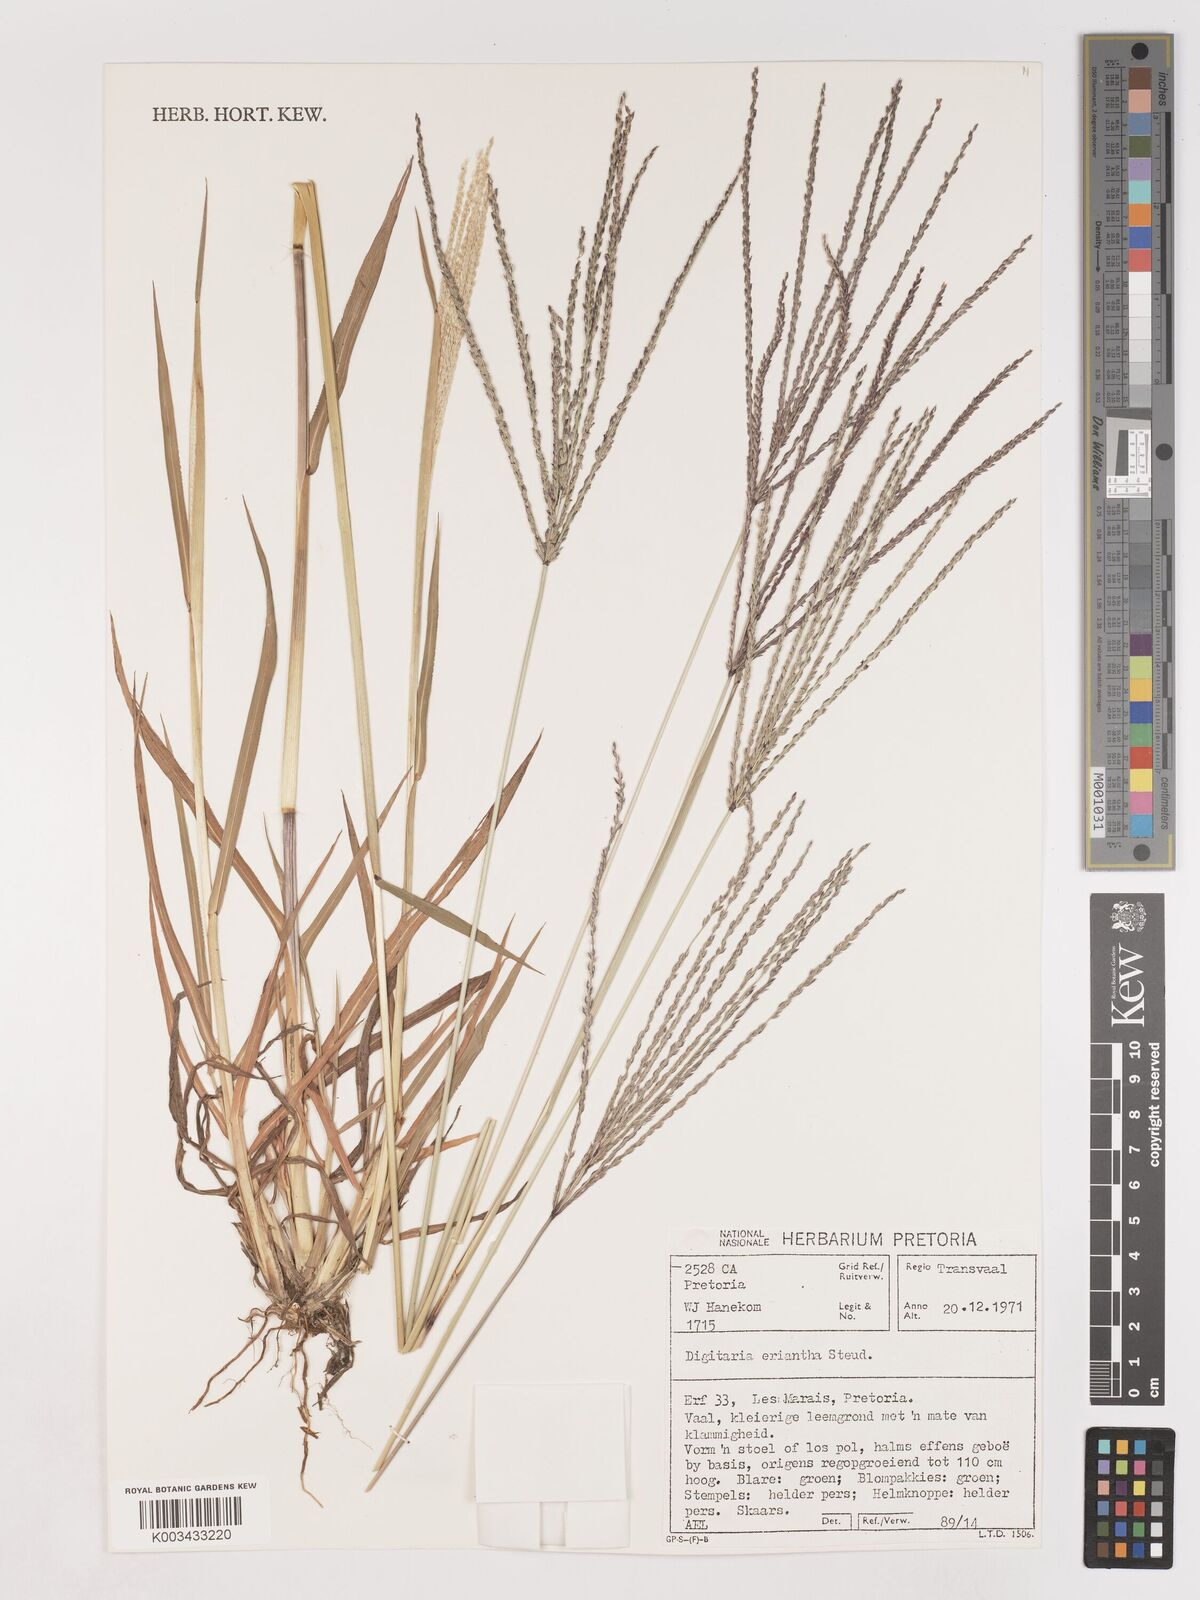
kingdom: Plantae
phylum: Tracheophyta
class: Liliopsida
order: Poales
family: Poaceae
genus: Digitaria
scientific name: Digitaria eriantha
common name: Digitgrass
